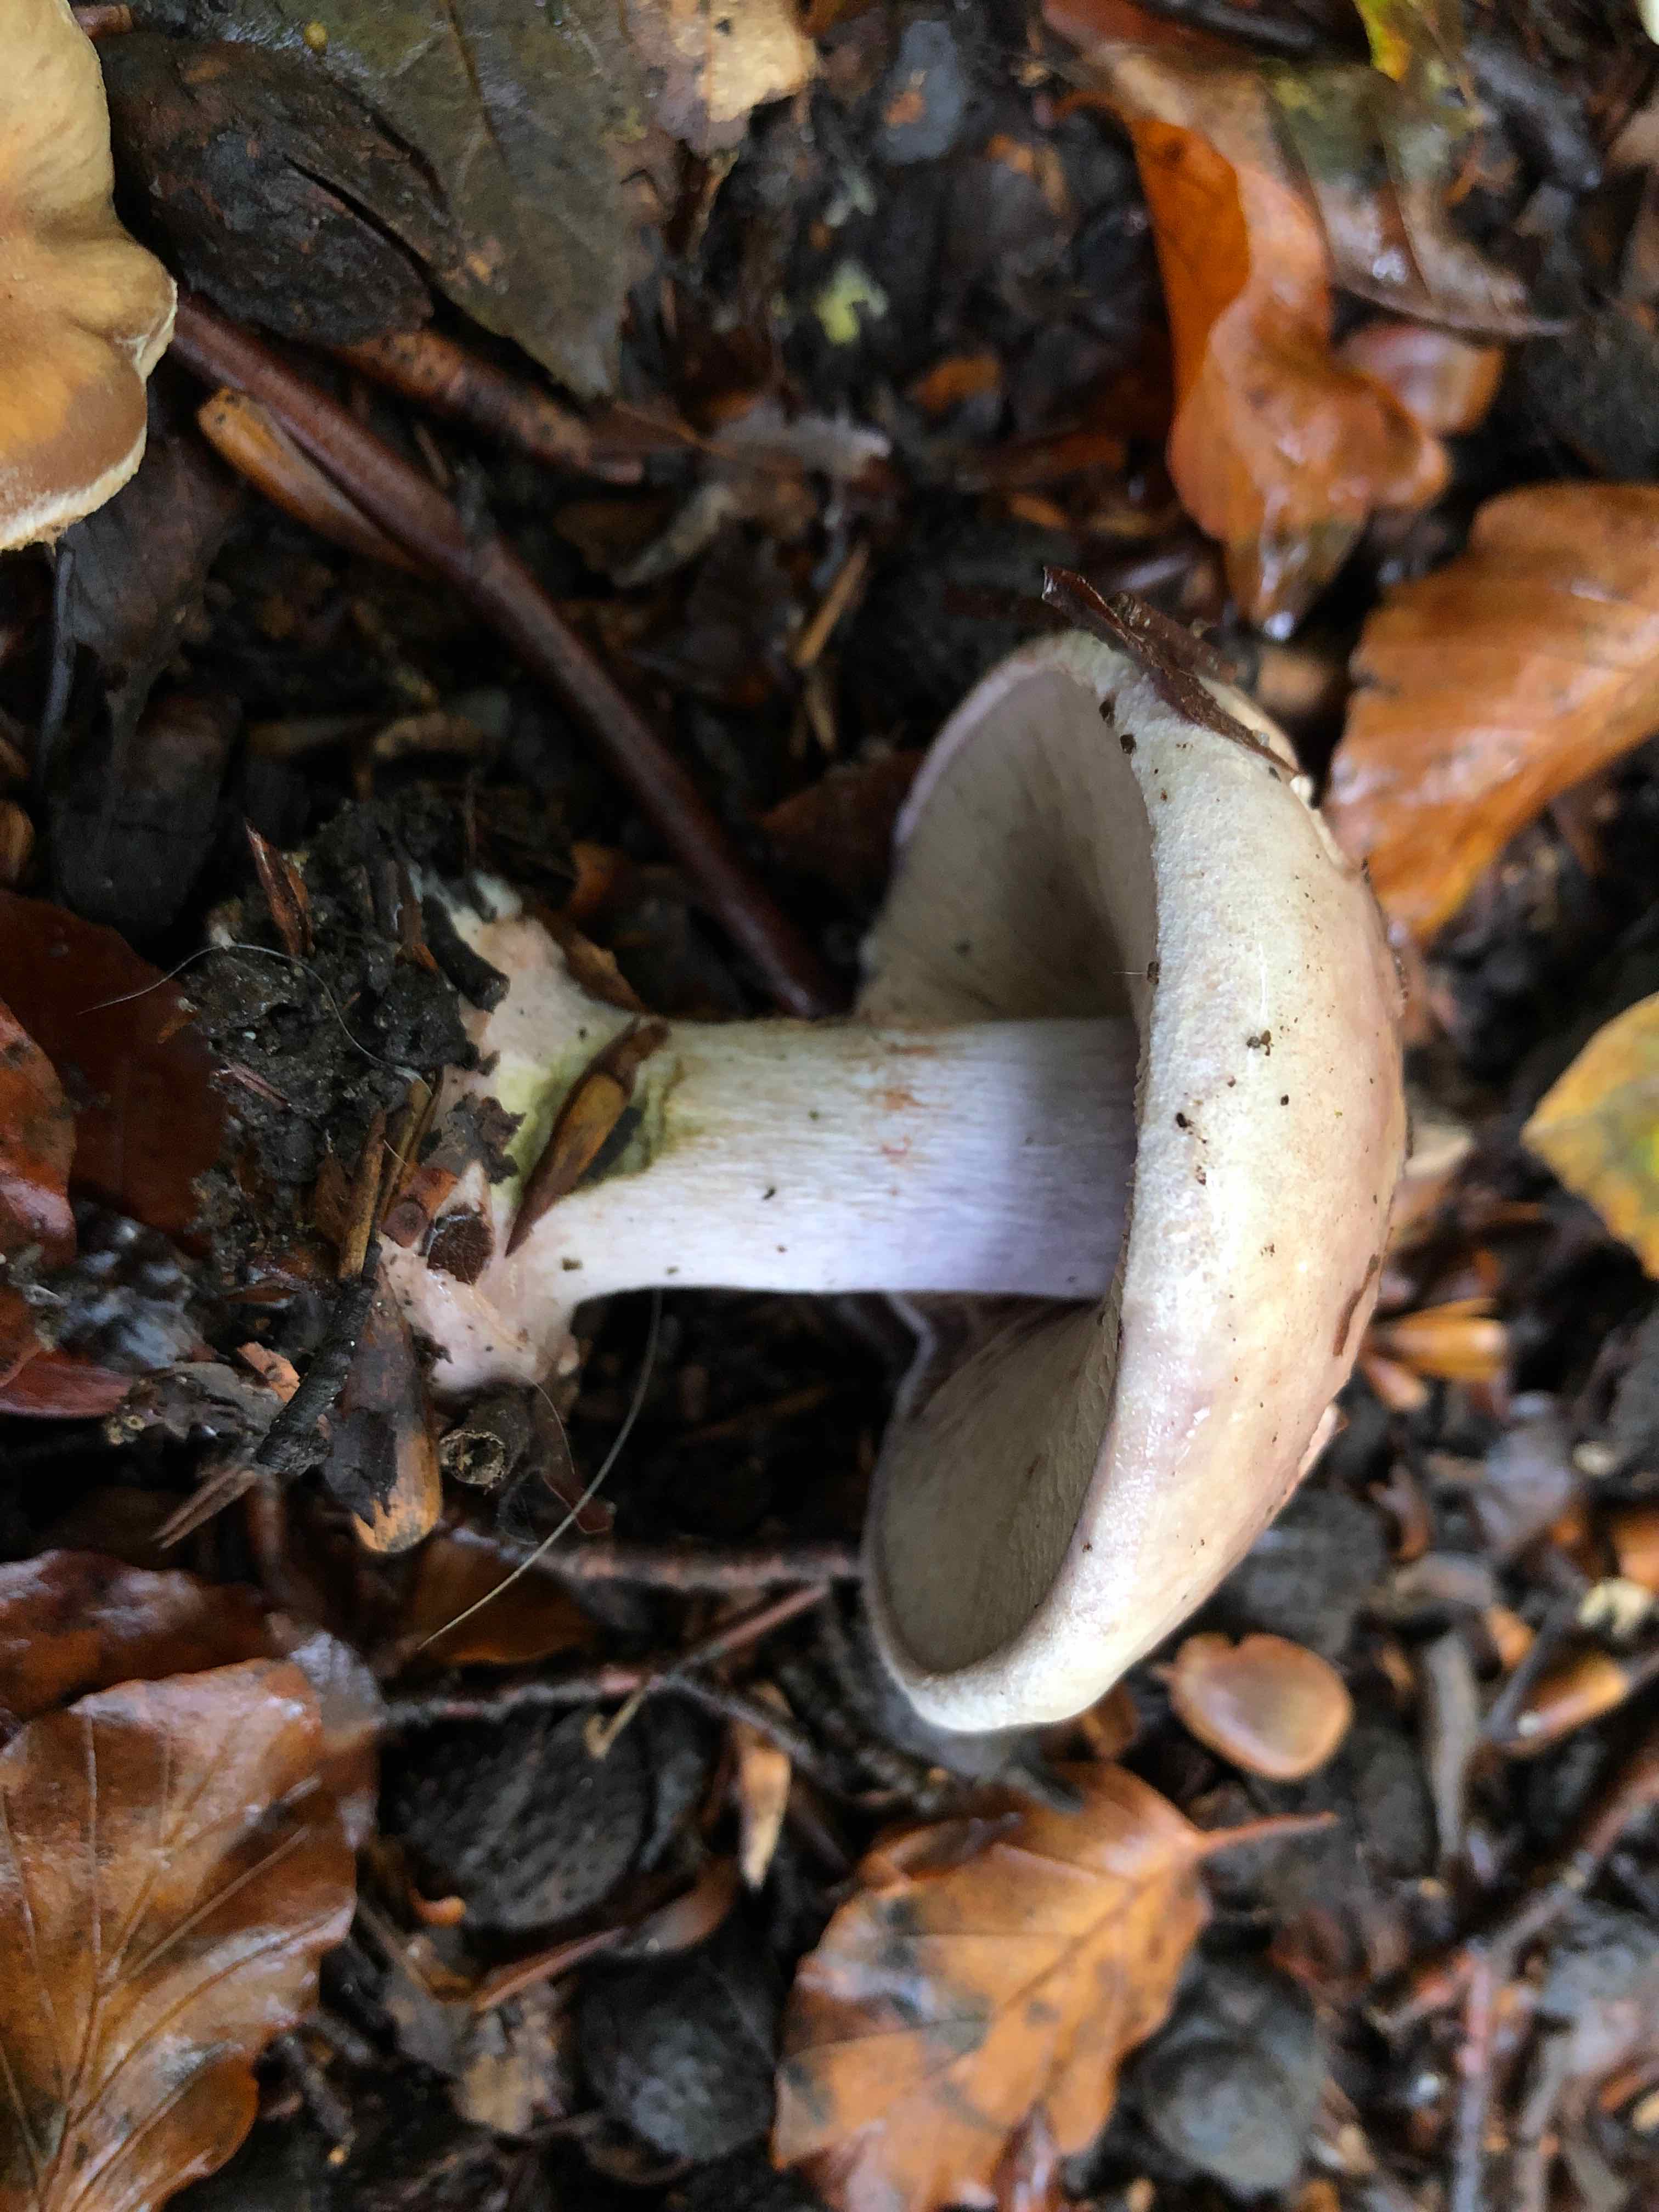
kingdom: Fungi
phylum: Basidiomycota
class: Agaricomycetes
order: Agaricales
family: Cortinariaceae
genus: Calonarius
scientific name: Calonarius rufo-olivaceus
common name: firefarvet slørhat
